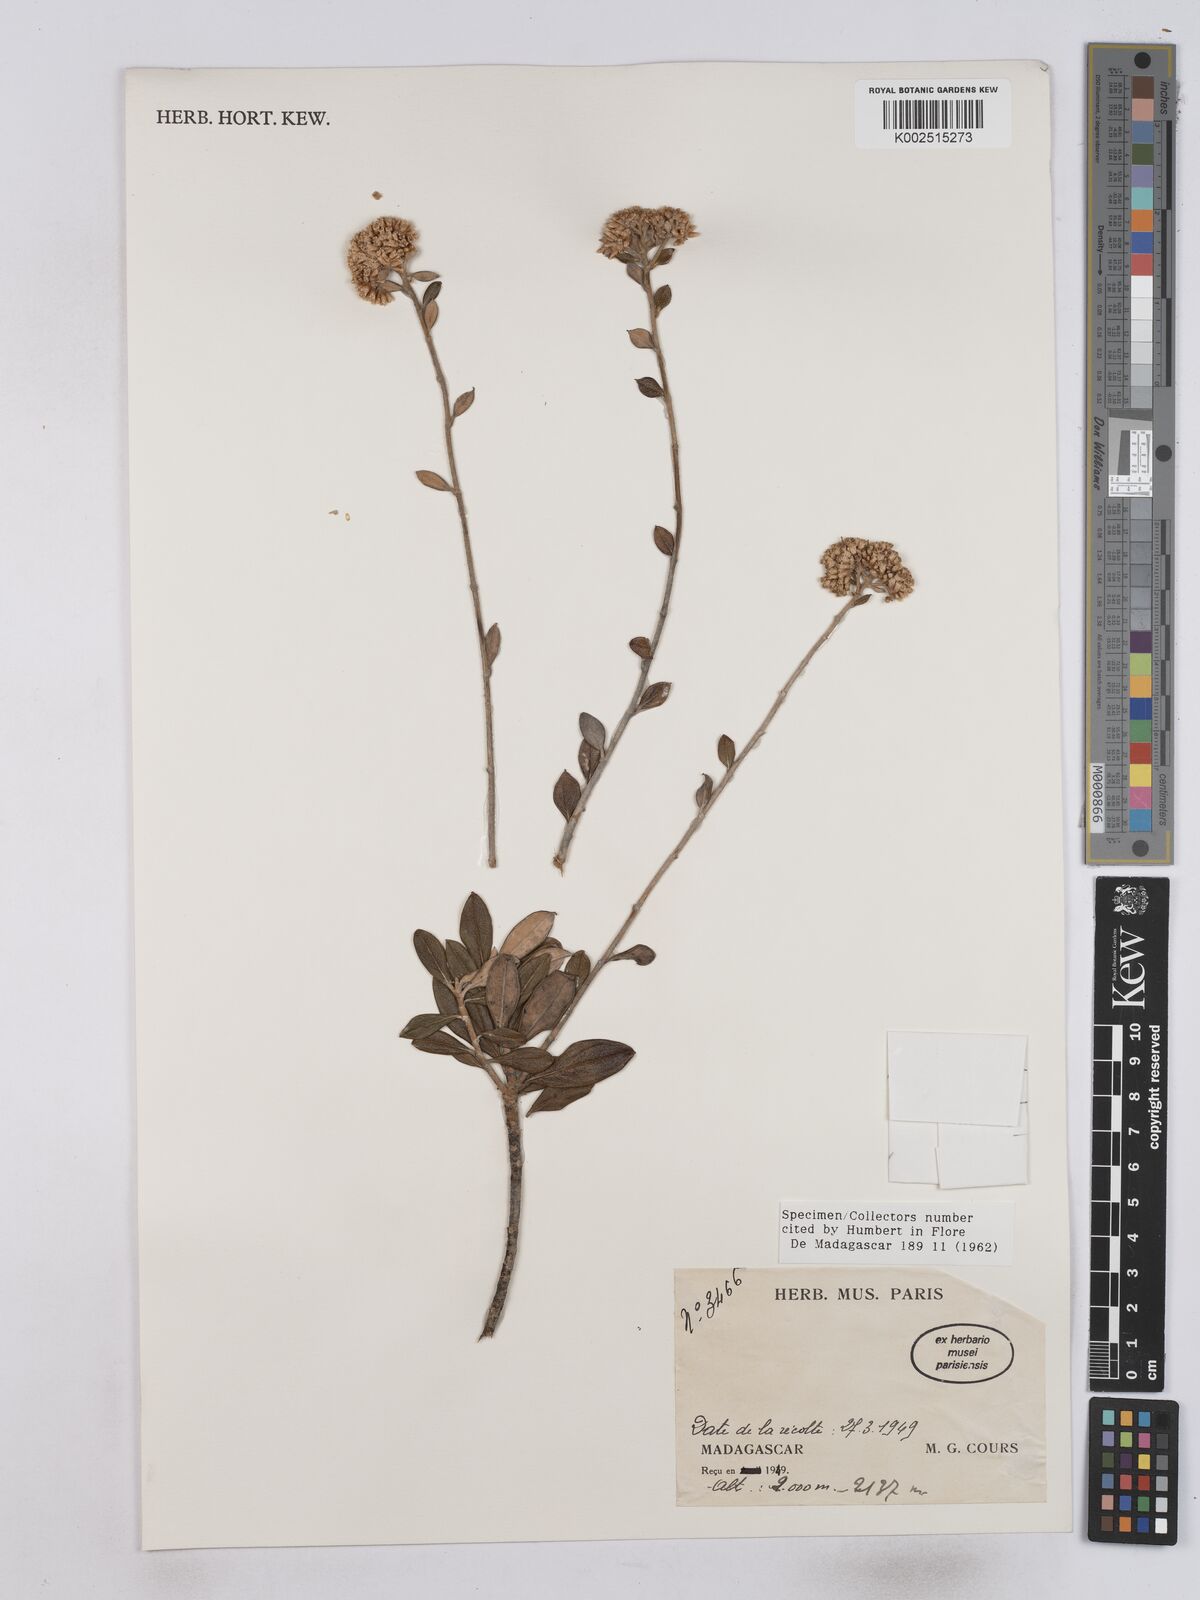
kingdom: Plantae
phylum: Tracheophyta
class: Magnoliopsida
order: Asterales
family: Asteraceae
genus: Helichrysum
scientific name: Helichrysum nervicinctum
